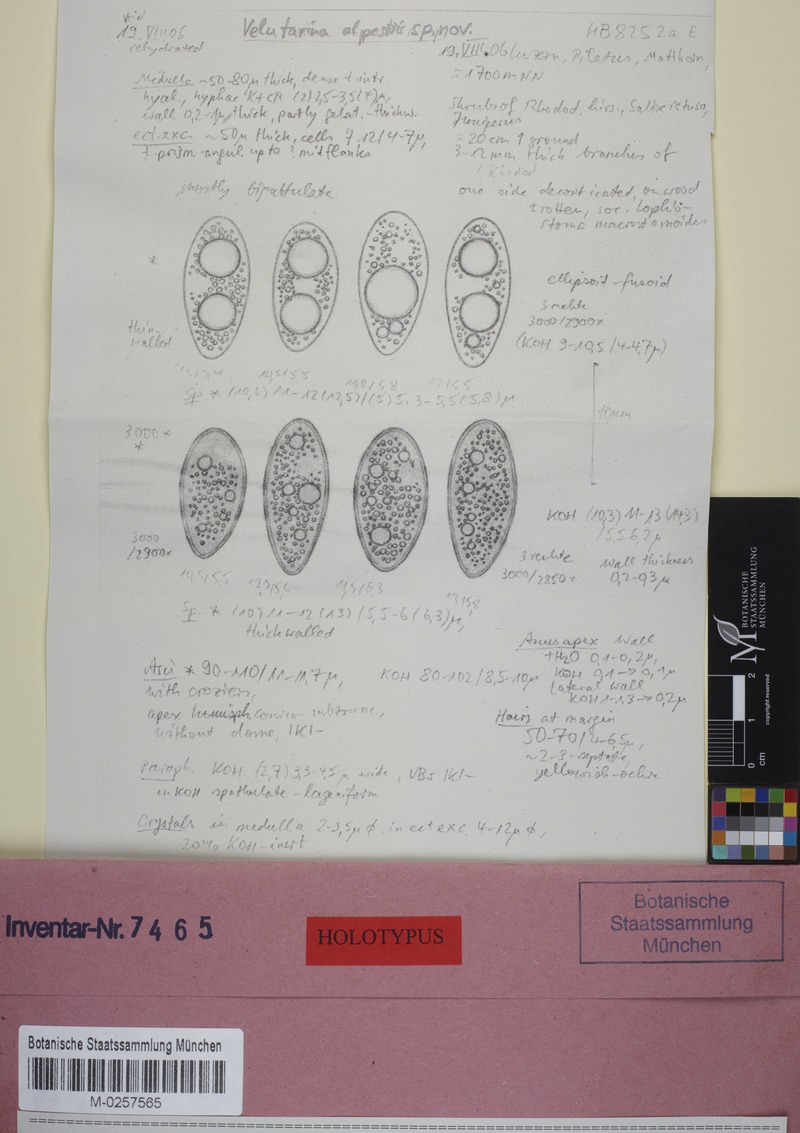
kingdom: Fungi
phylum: Ascomycota
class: Leotiomycetes
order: Helotiales
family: Cenangiaceae
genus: Cenangiopsis
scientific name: Cenangiopsis alpestris
